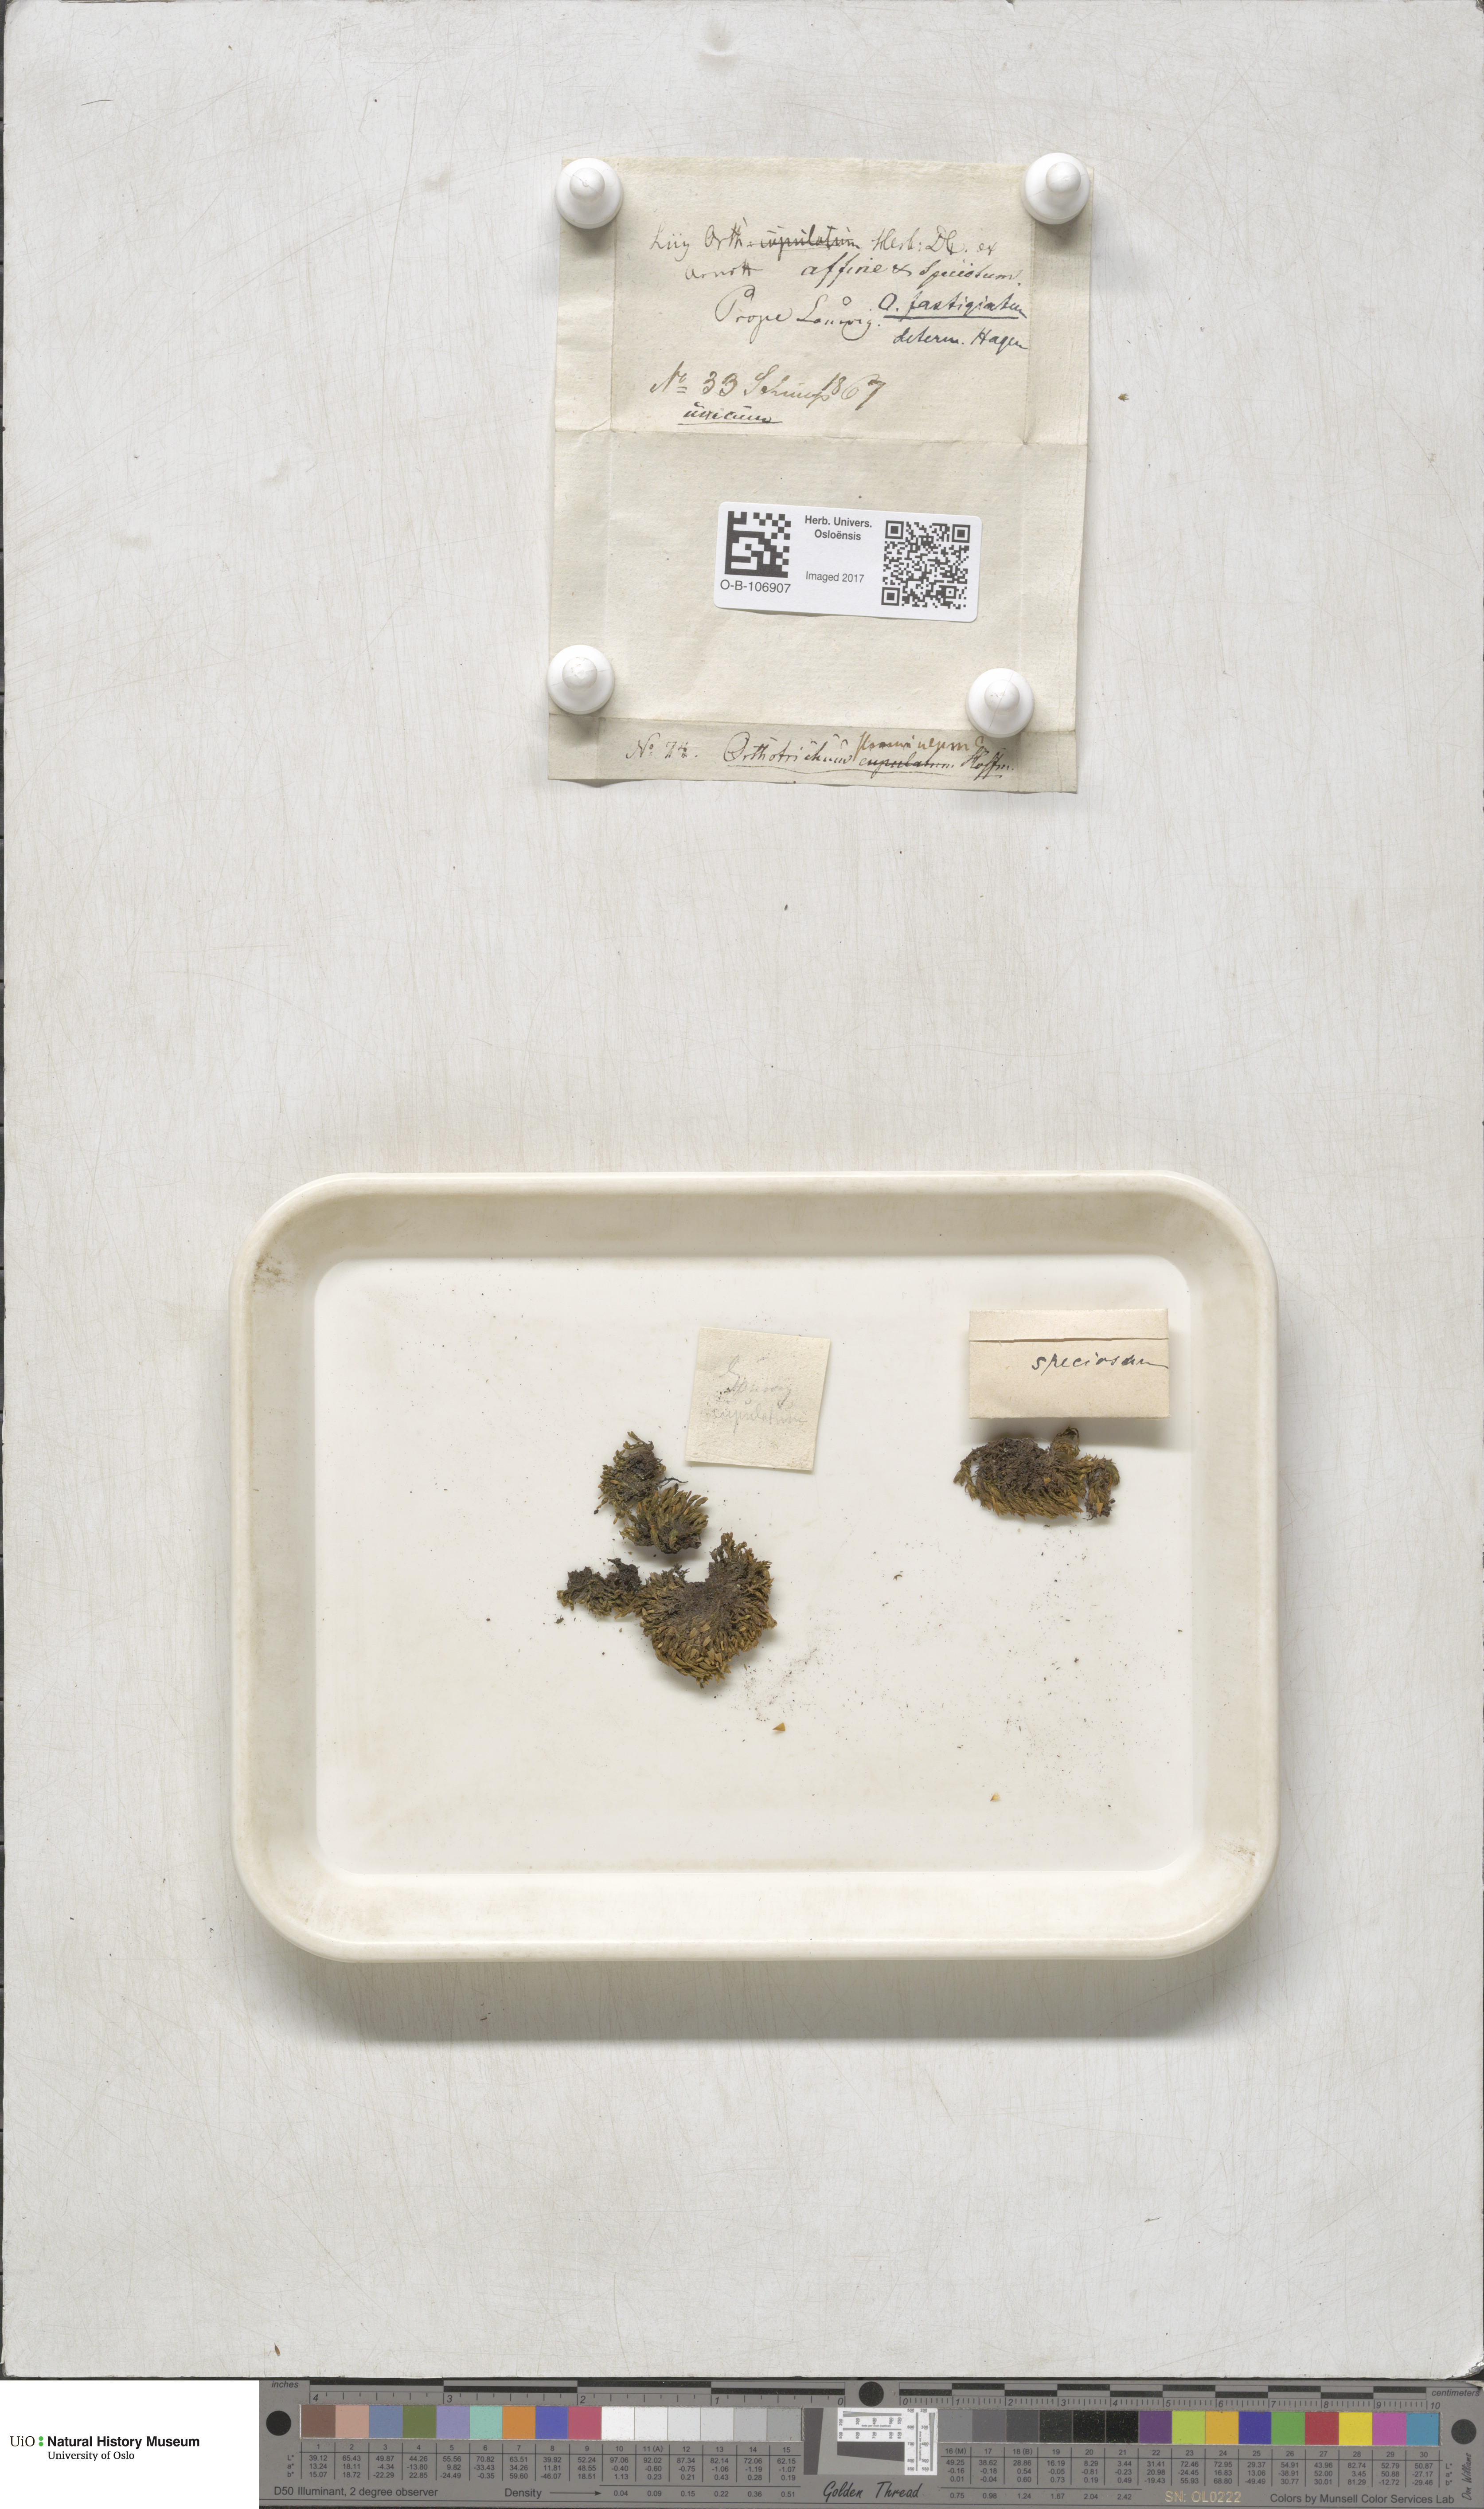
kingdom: Plantae
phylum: Bryophyta
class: Bryopsida
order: Orthotrichales
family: Orthotrichaceae
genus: Lewinskya
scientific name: Lewinskya affinis
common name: Wood bristle-moss
